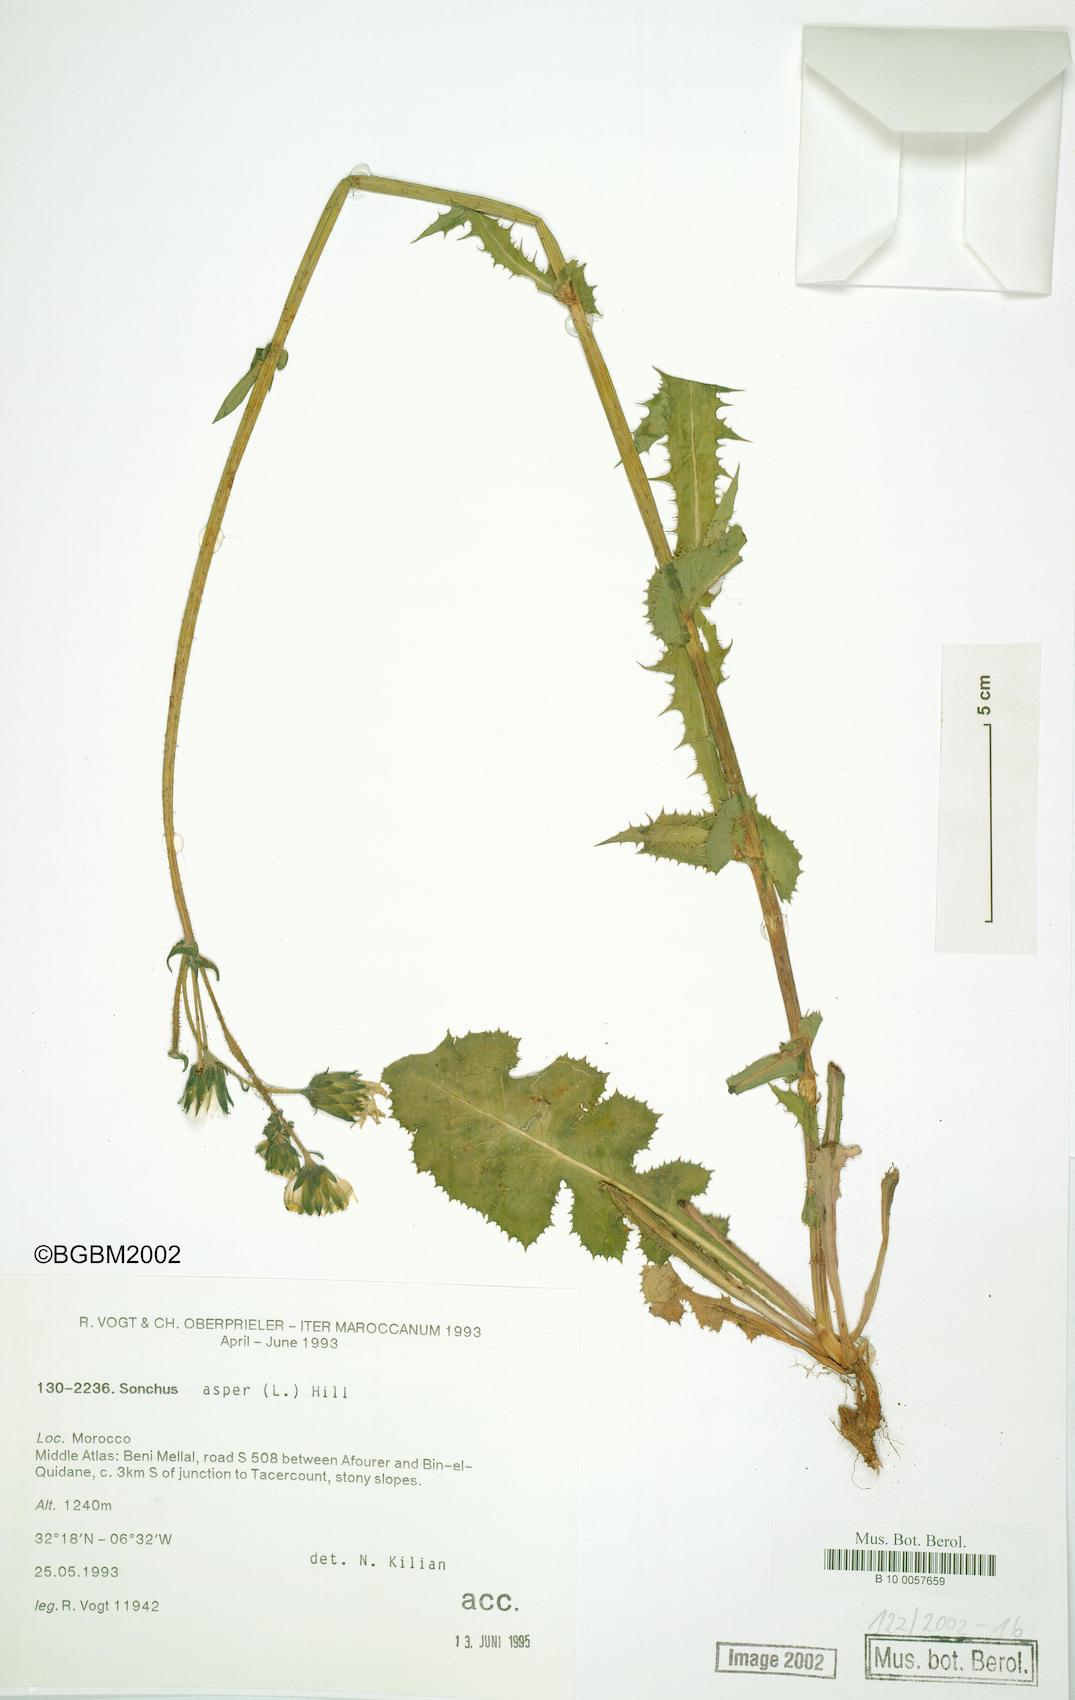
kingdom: Plantae
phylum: Tracheophyta
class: Magnoliopsida
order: Asterales
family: Asteraceae
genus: Sonchus
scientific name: Sonchus asper
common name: Prickly sow-thistle
